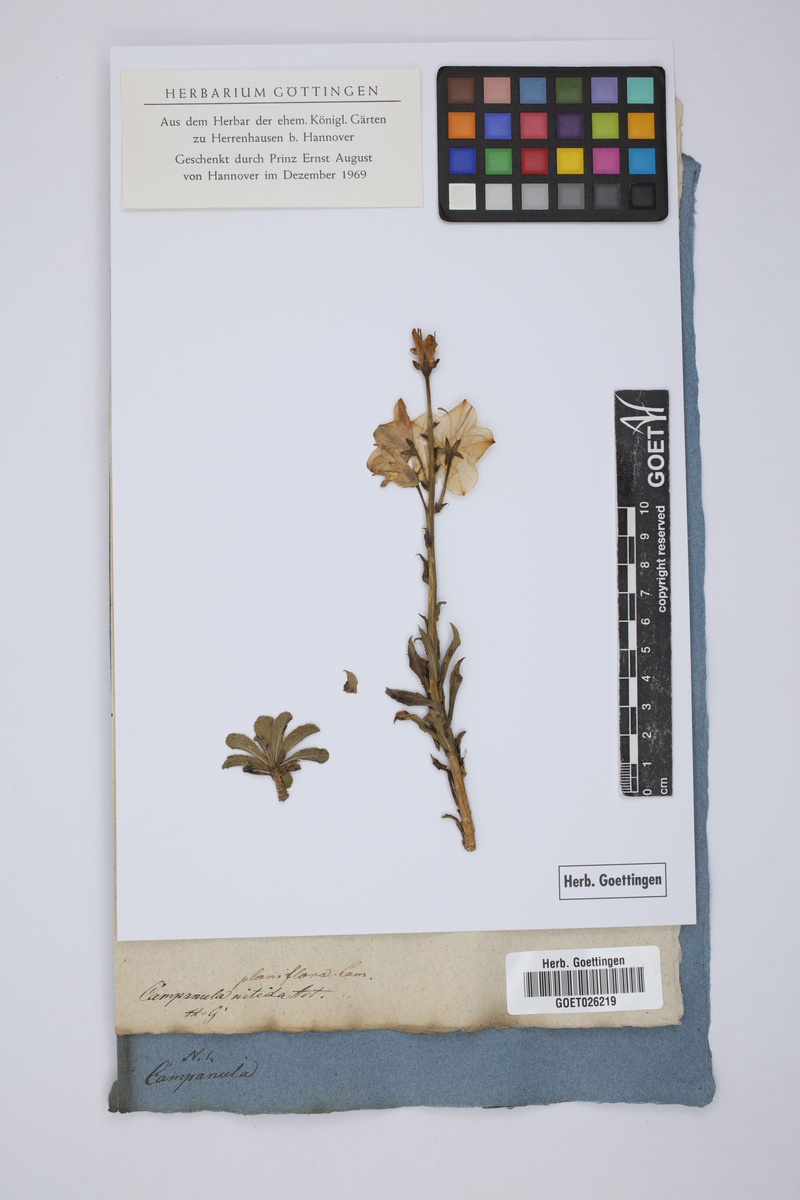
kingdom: Plantae
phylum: Tracheophyta
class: Magnoliopsida
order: Asterales
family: Campanulaceae
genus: Campanulastrum
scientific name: Campanulastrum americanum
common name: American bellflower
